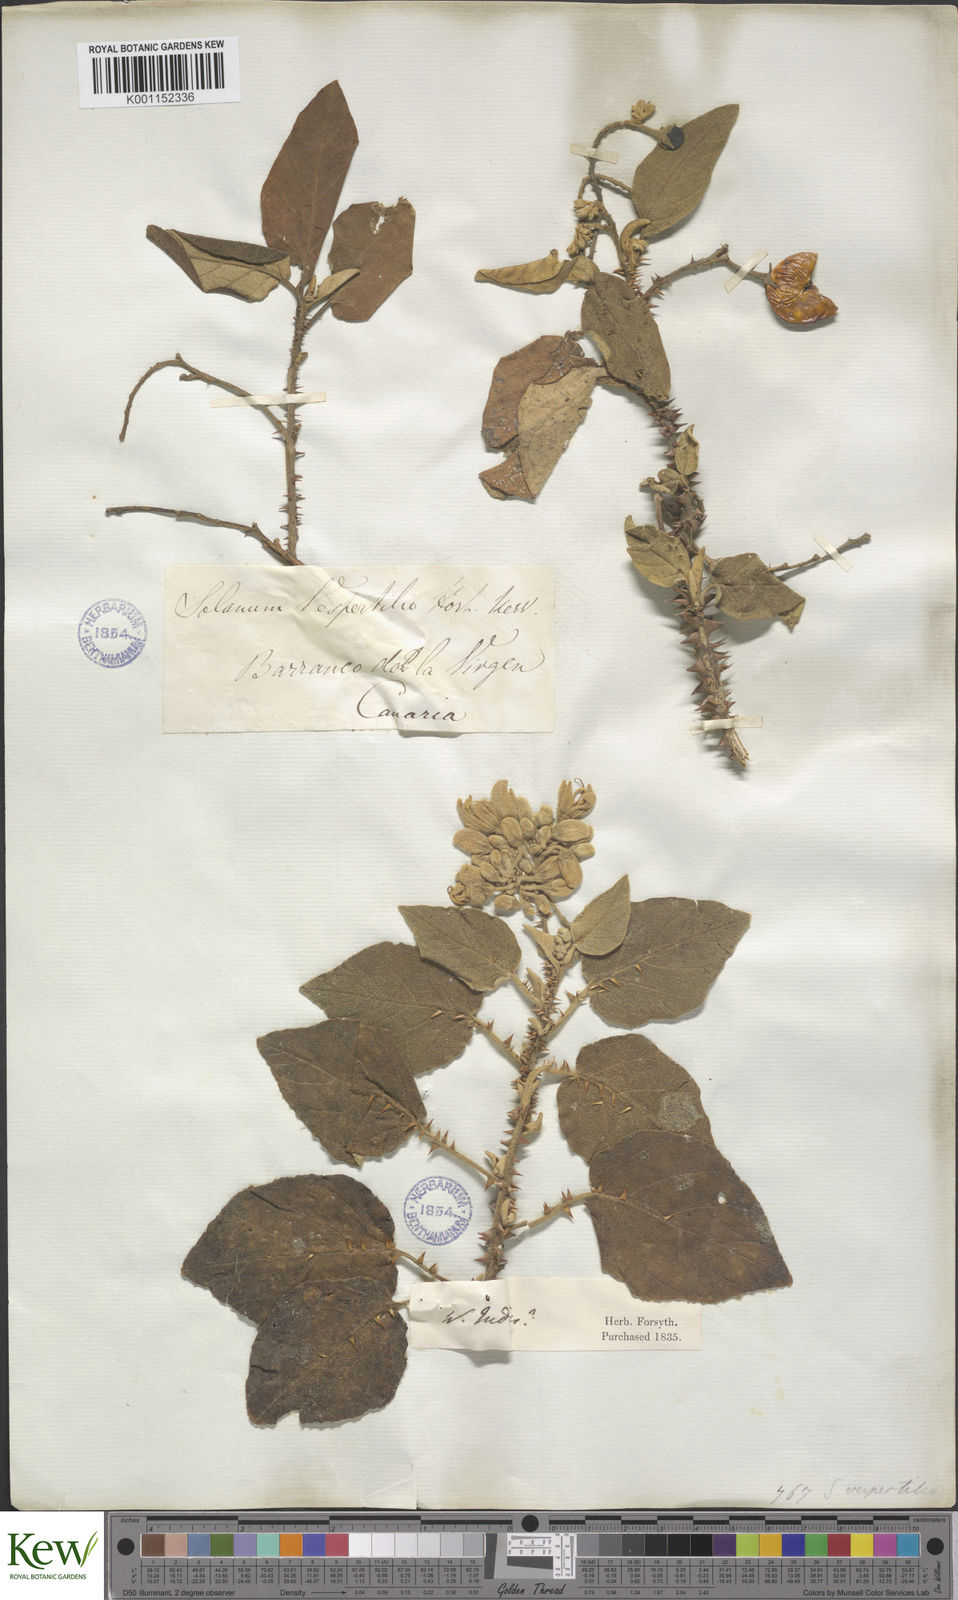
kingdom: Plantae
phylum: Tracheophyta
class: Magnoliopsida
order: Solanales
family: Solanaceae
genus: Solanum
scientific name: Solanum vespertilio
